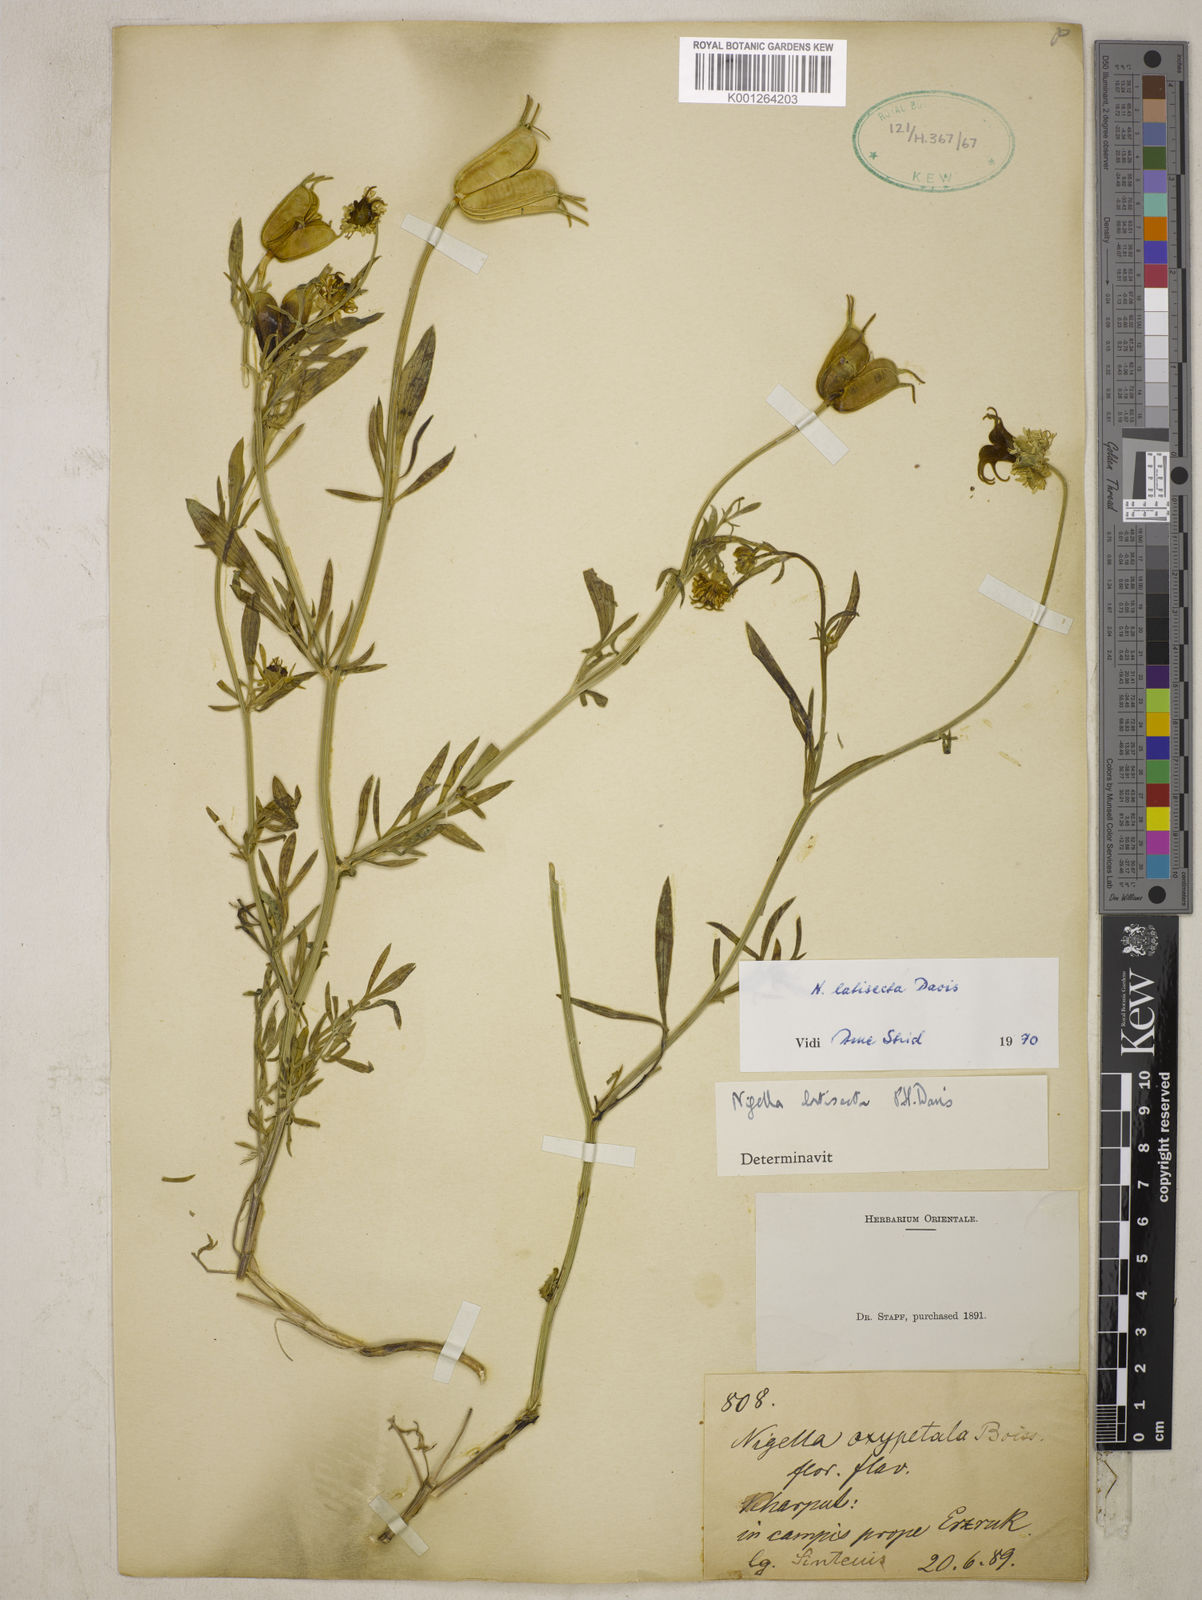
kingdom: Plantae
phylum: Tracheophyta
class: Magnoliopsida
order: Ranunculales
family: Ranunculaceae
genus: Nigella
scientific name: Nigella oxypetala
